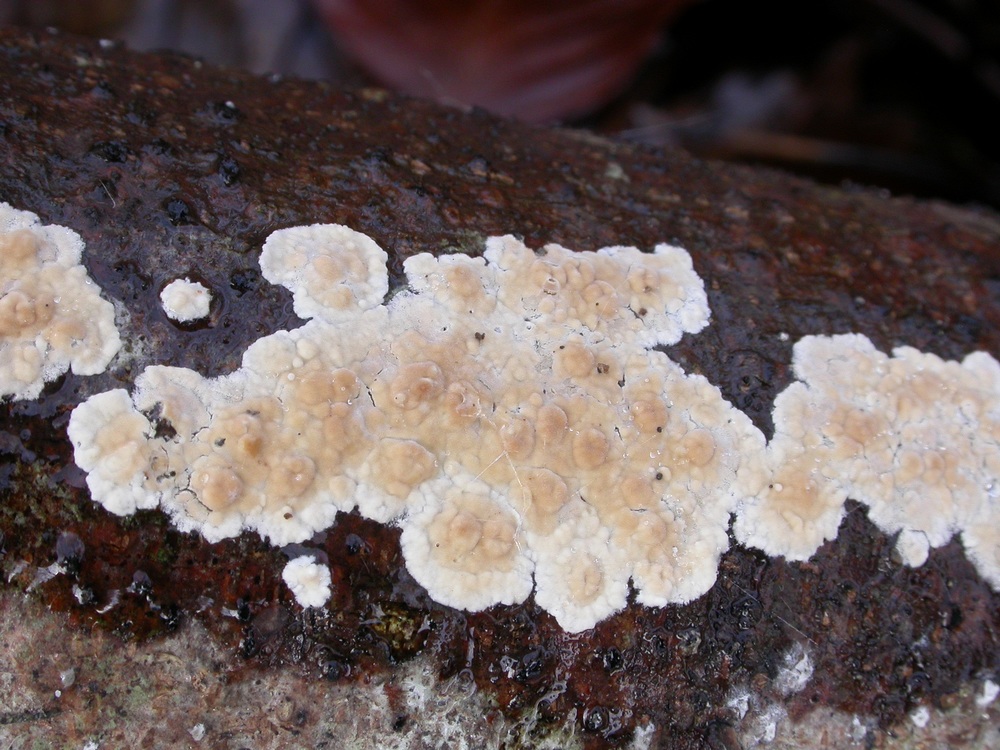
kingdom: Fungi
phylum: Basidiomycota
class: Agaricomycetes
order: Agaricales
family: Physalacriaceae
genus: Cylindrobasidium
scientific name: Cylindrobasidium evolvens
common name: sprækkehinde
